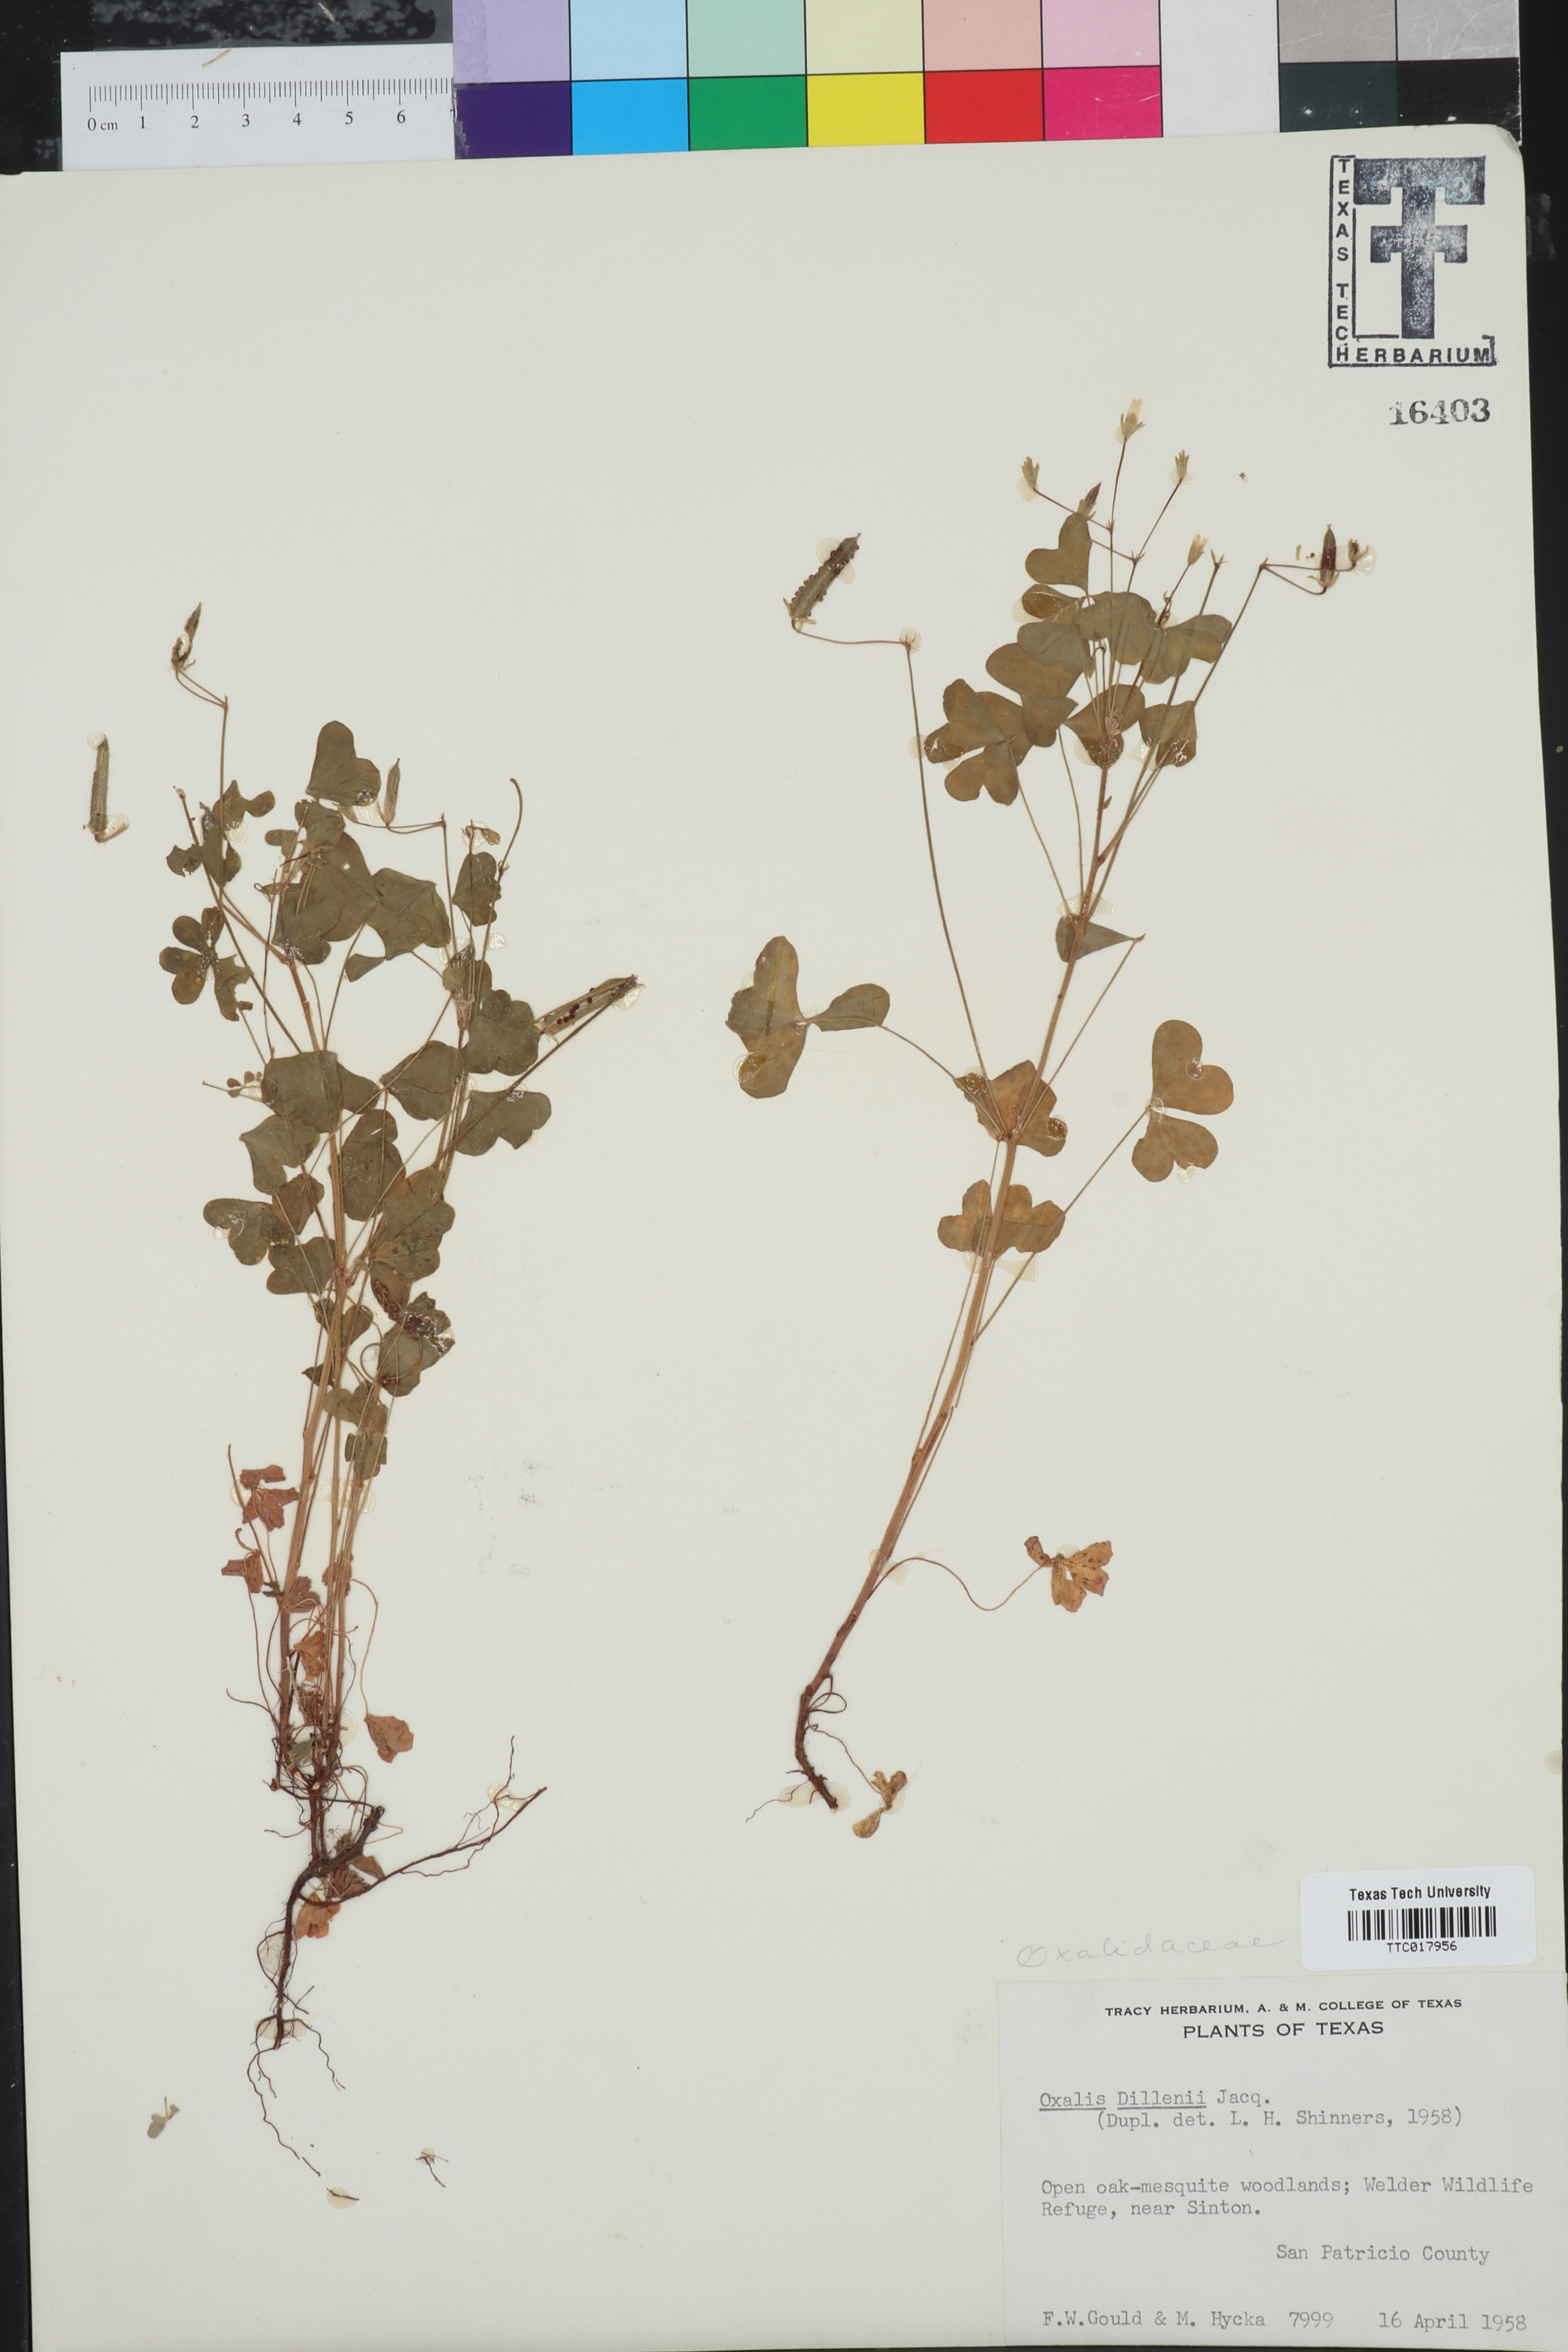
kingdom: Plantae
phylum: Tracheophyta
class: Magnoliopsida
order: Oxalidales
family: Oxalidaceae
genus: Oxalis
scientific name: Oxalis dillenii
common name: Sussex yellow-sorrel
